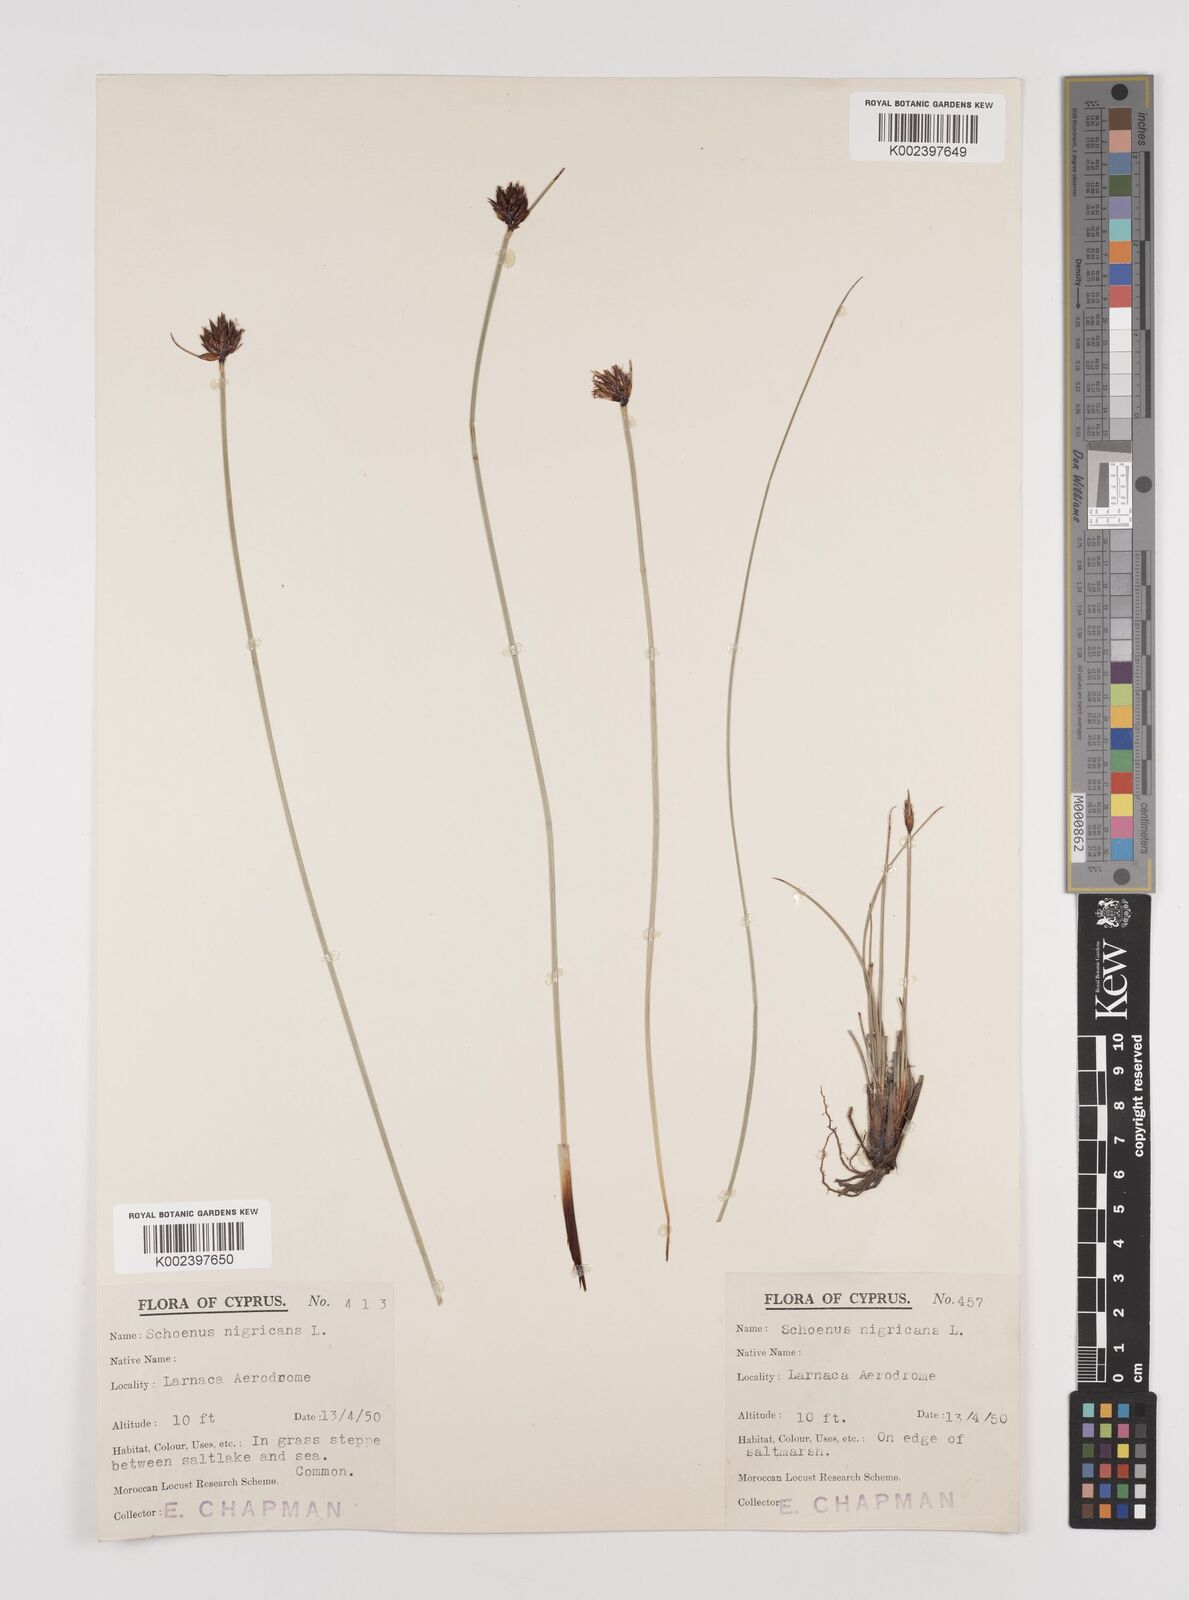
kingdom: Plantae
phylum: Tracheophyta
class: Liliopsida
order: Poales
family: Cyperaceae
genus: Schoenus
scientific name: Schoenus nigricans
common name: Black bog-rush
